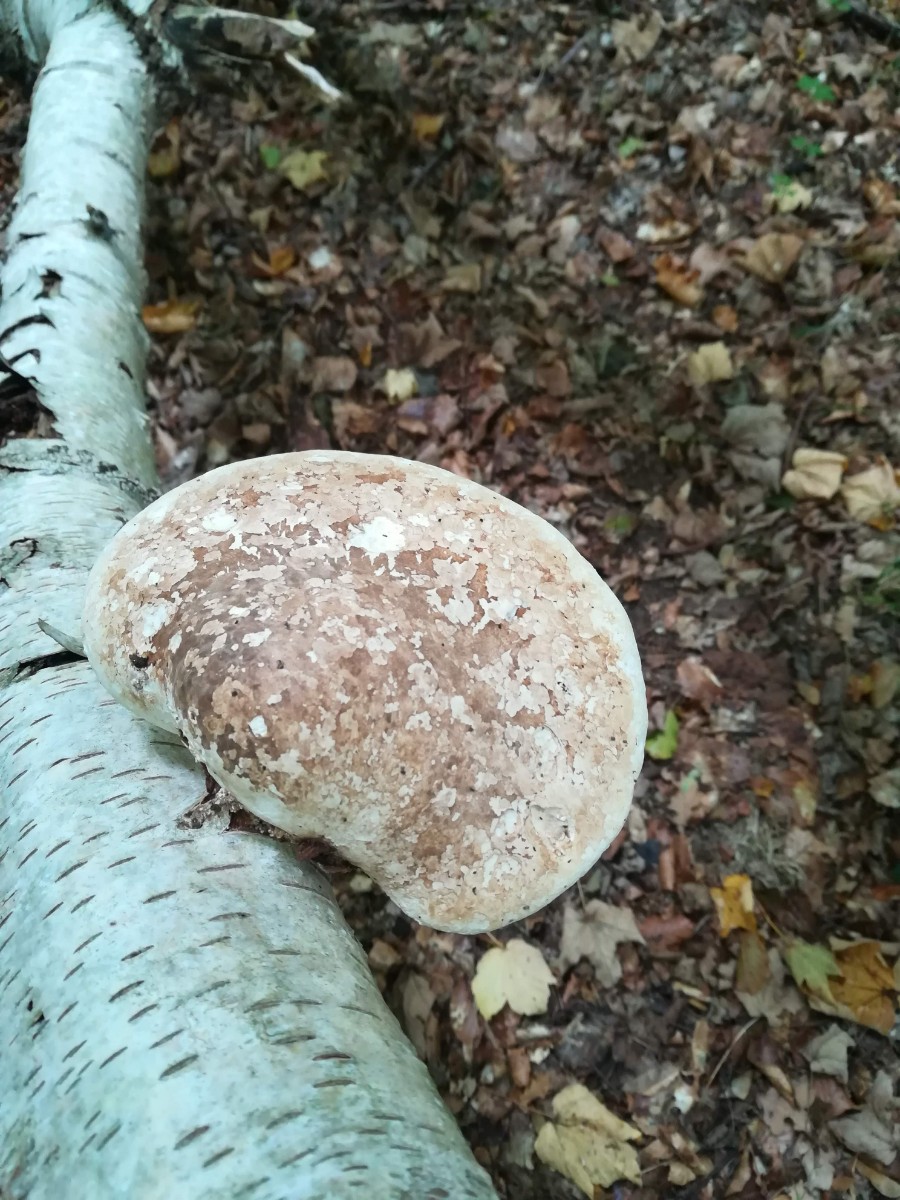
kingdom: Fungi
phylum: Basidiomycota
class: Agaricomycetes
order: Polyporales
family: Fomitopsidaceae
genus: Fomitopsis
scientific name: Fomitopsis betulina
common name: birkeporesvamp
